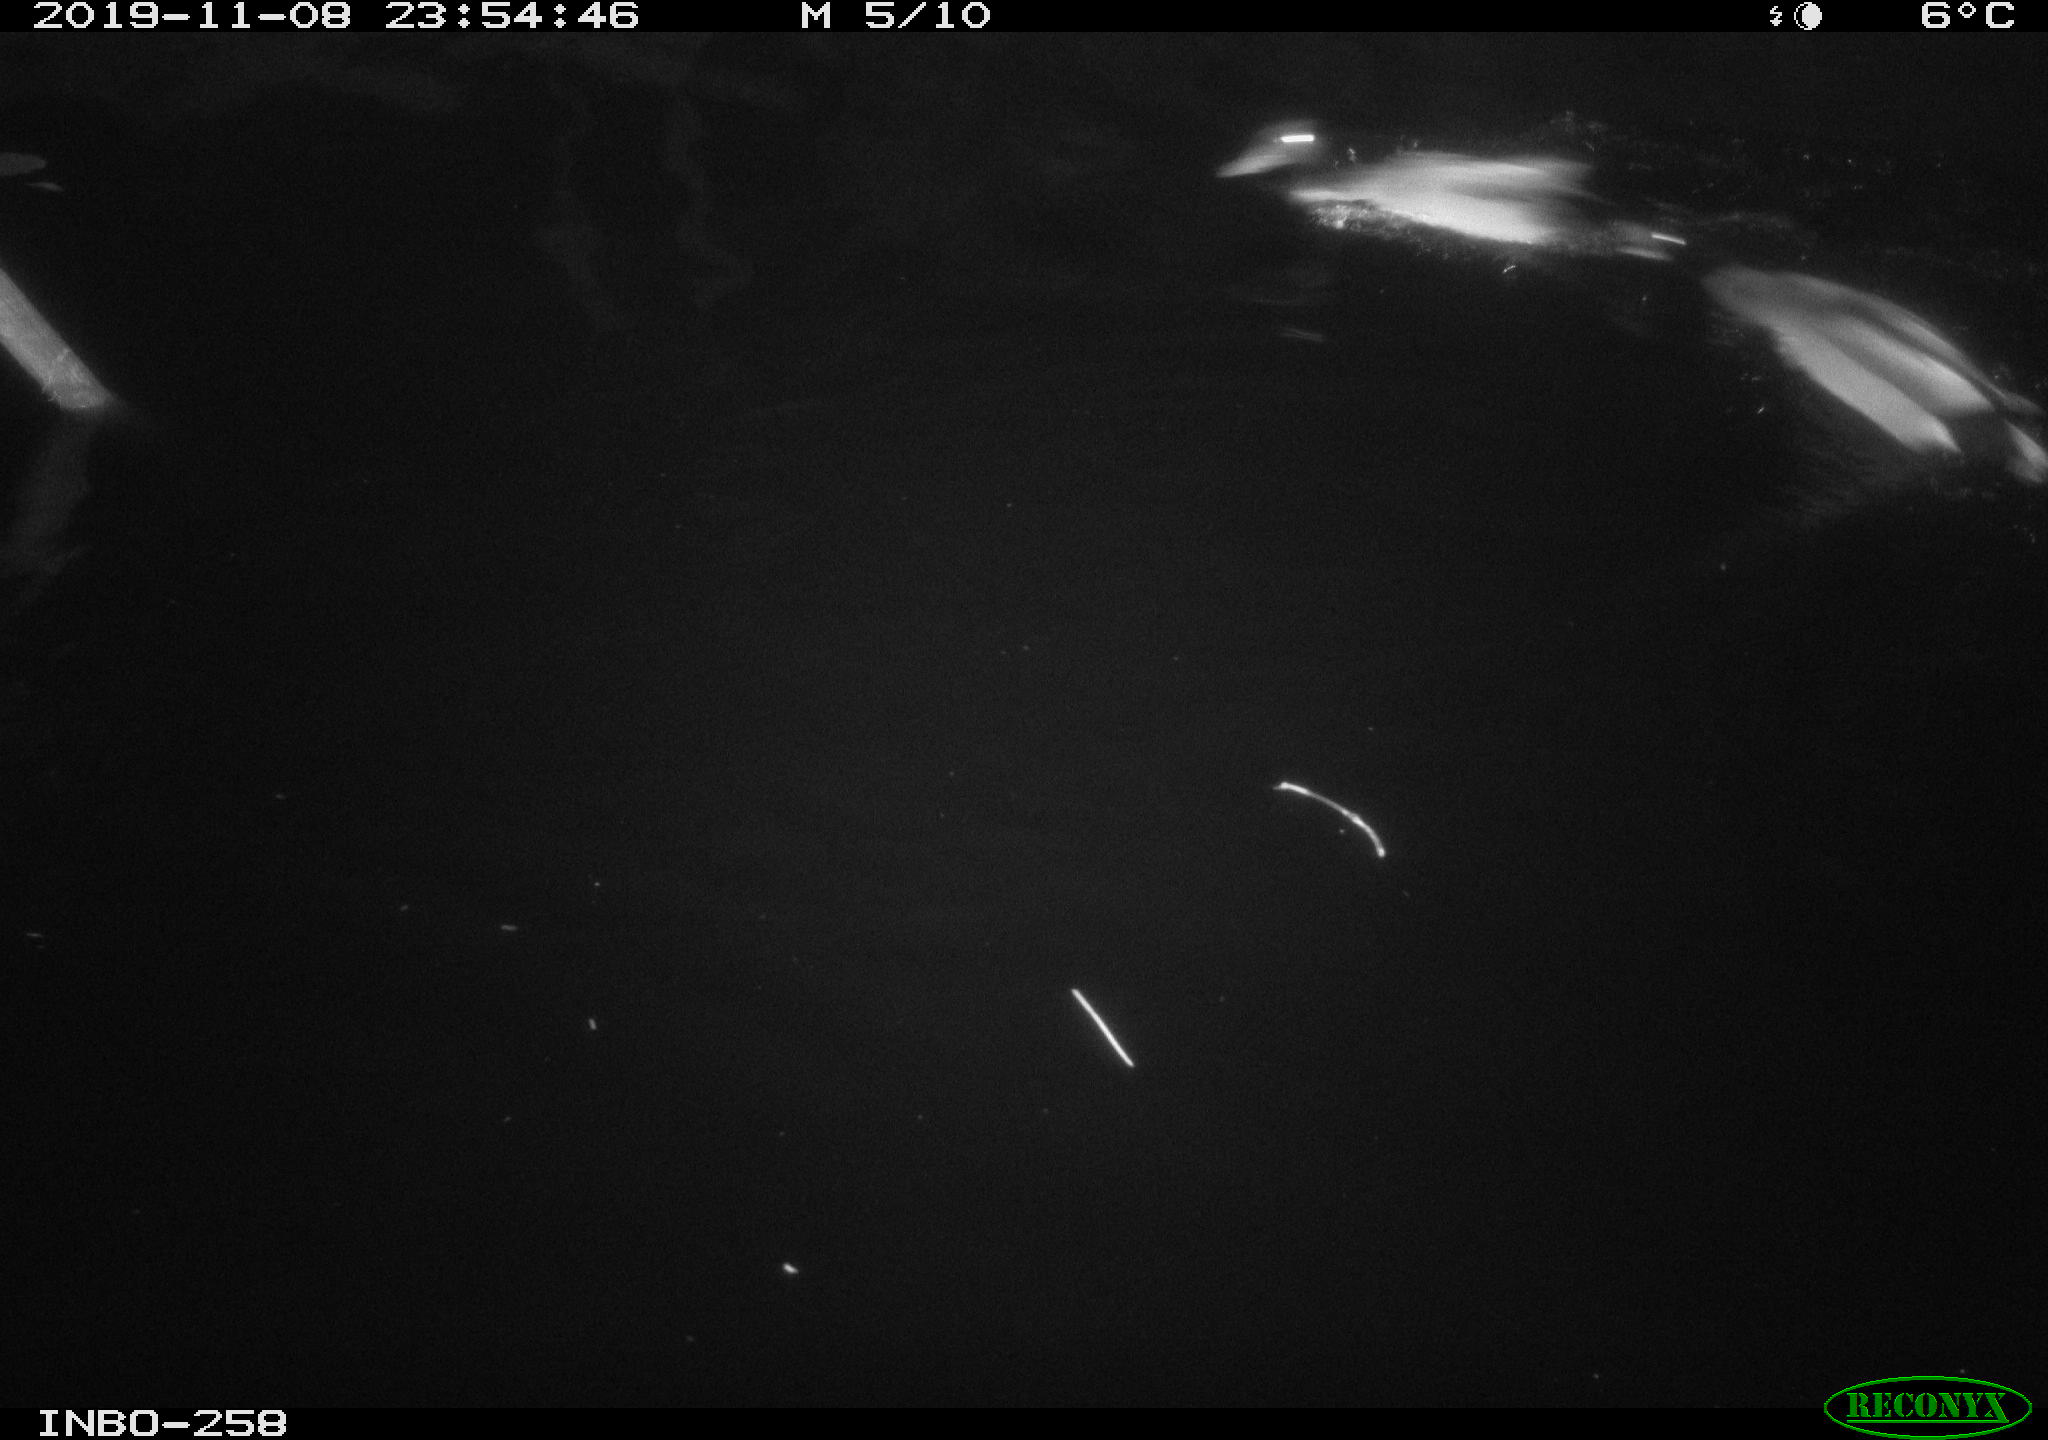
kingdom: Animalia
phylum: Chordata
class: Aves
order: Anseriformes
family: Anatidae
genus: Anas
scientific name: Anas platyrhynchos
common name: Mallard
